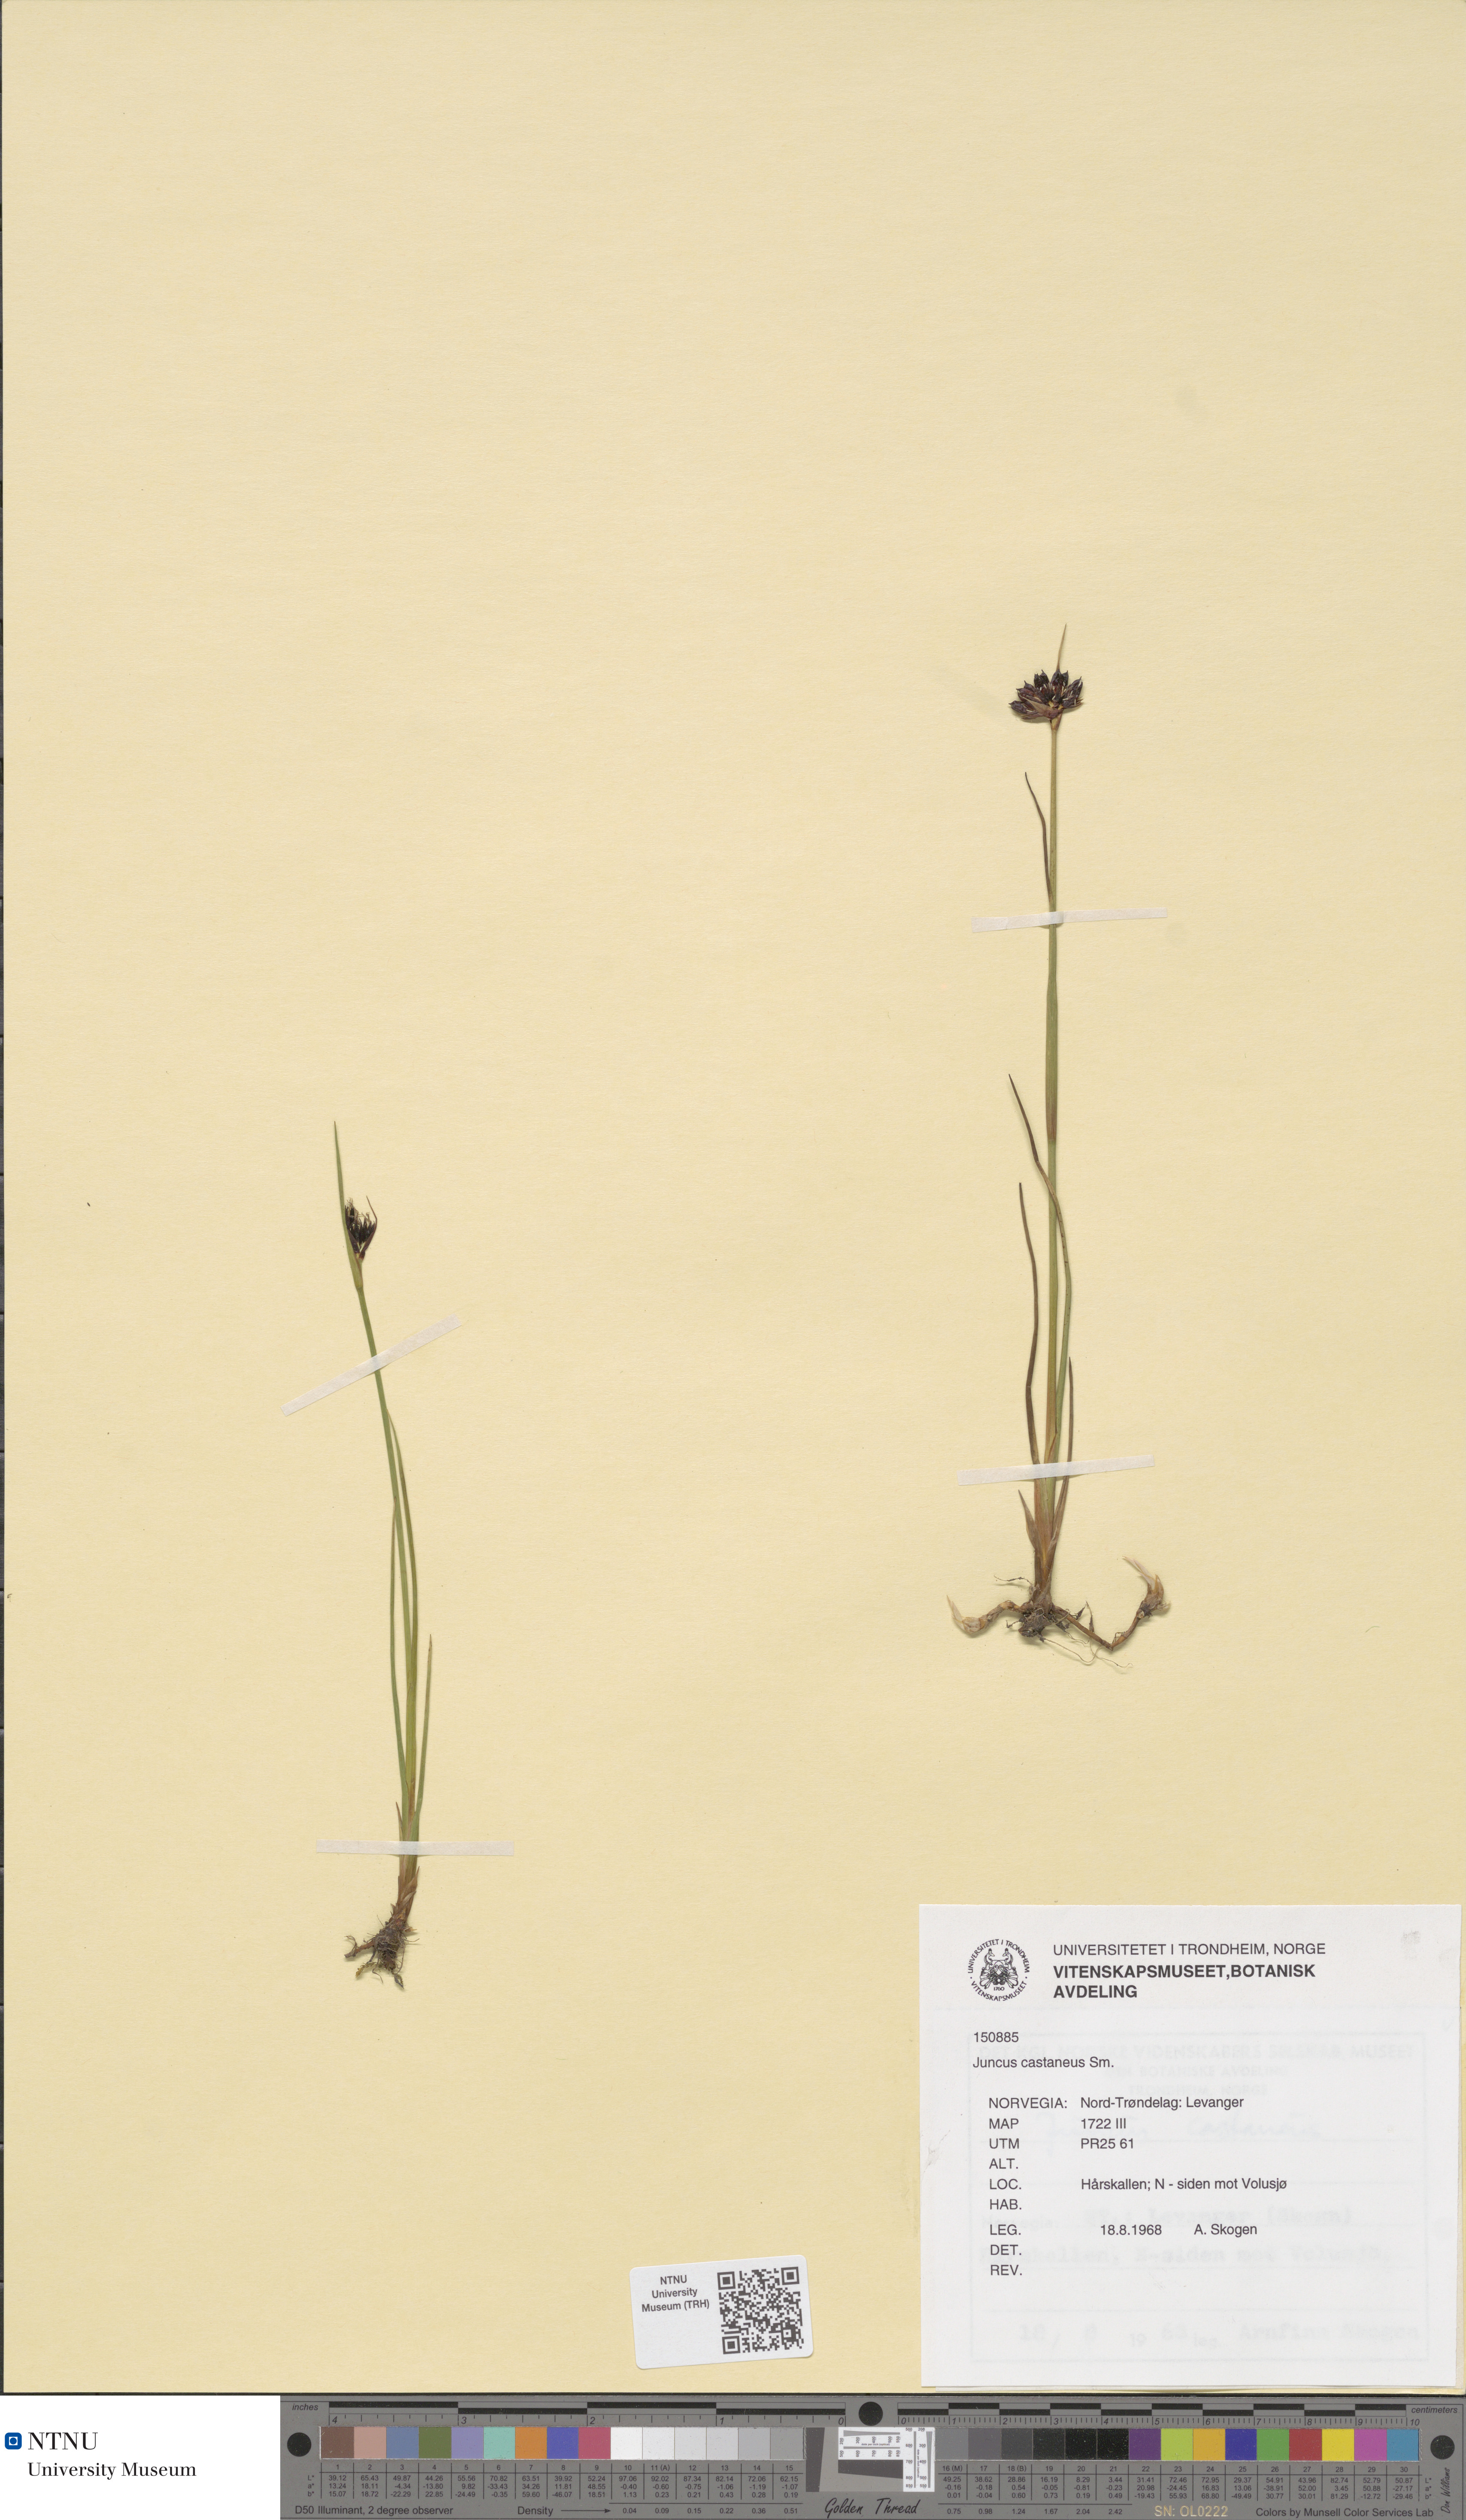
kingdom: Plantae
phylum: Tracheophyta
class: Liliopsida
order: Poales
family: Juncaceae
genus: Juncus
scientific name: Juncus castaneus
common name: Chestnut rush
